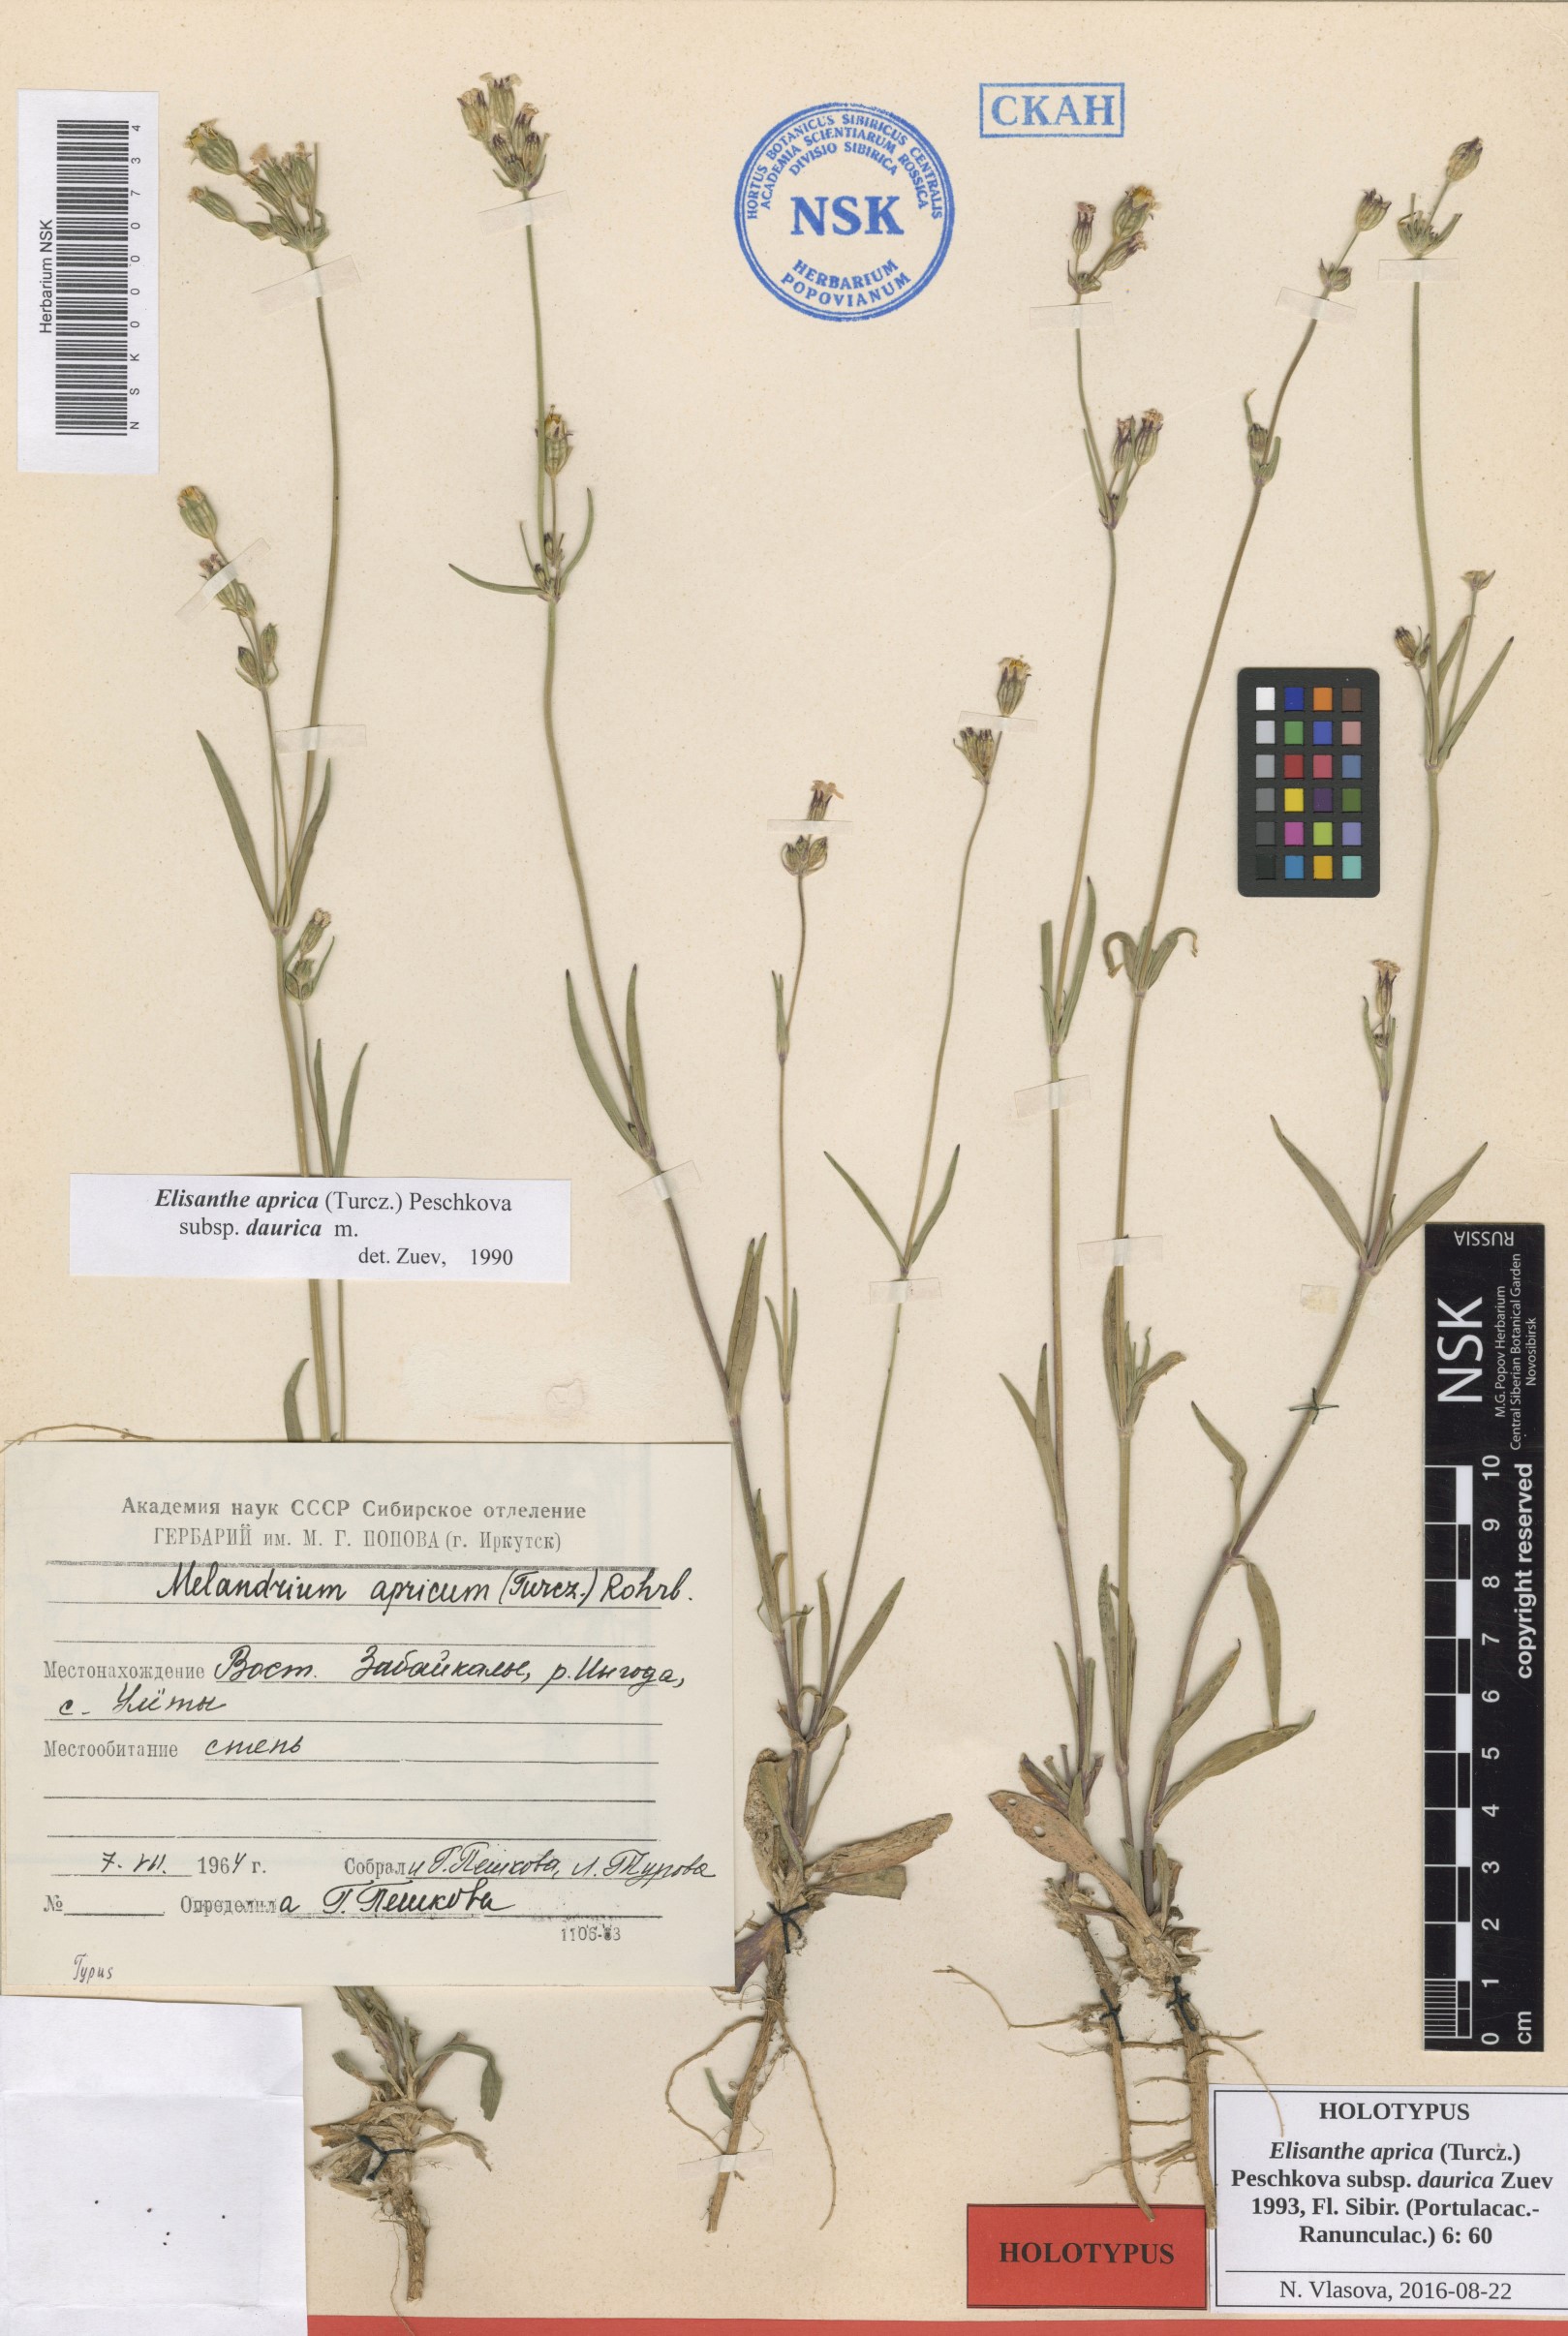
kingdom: Plantae
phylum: Tracheophyta
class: Magnoliopsida
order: Caryophyllales
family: Caryophyllaceae
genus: Silene
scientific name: Silene aprica
